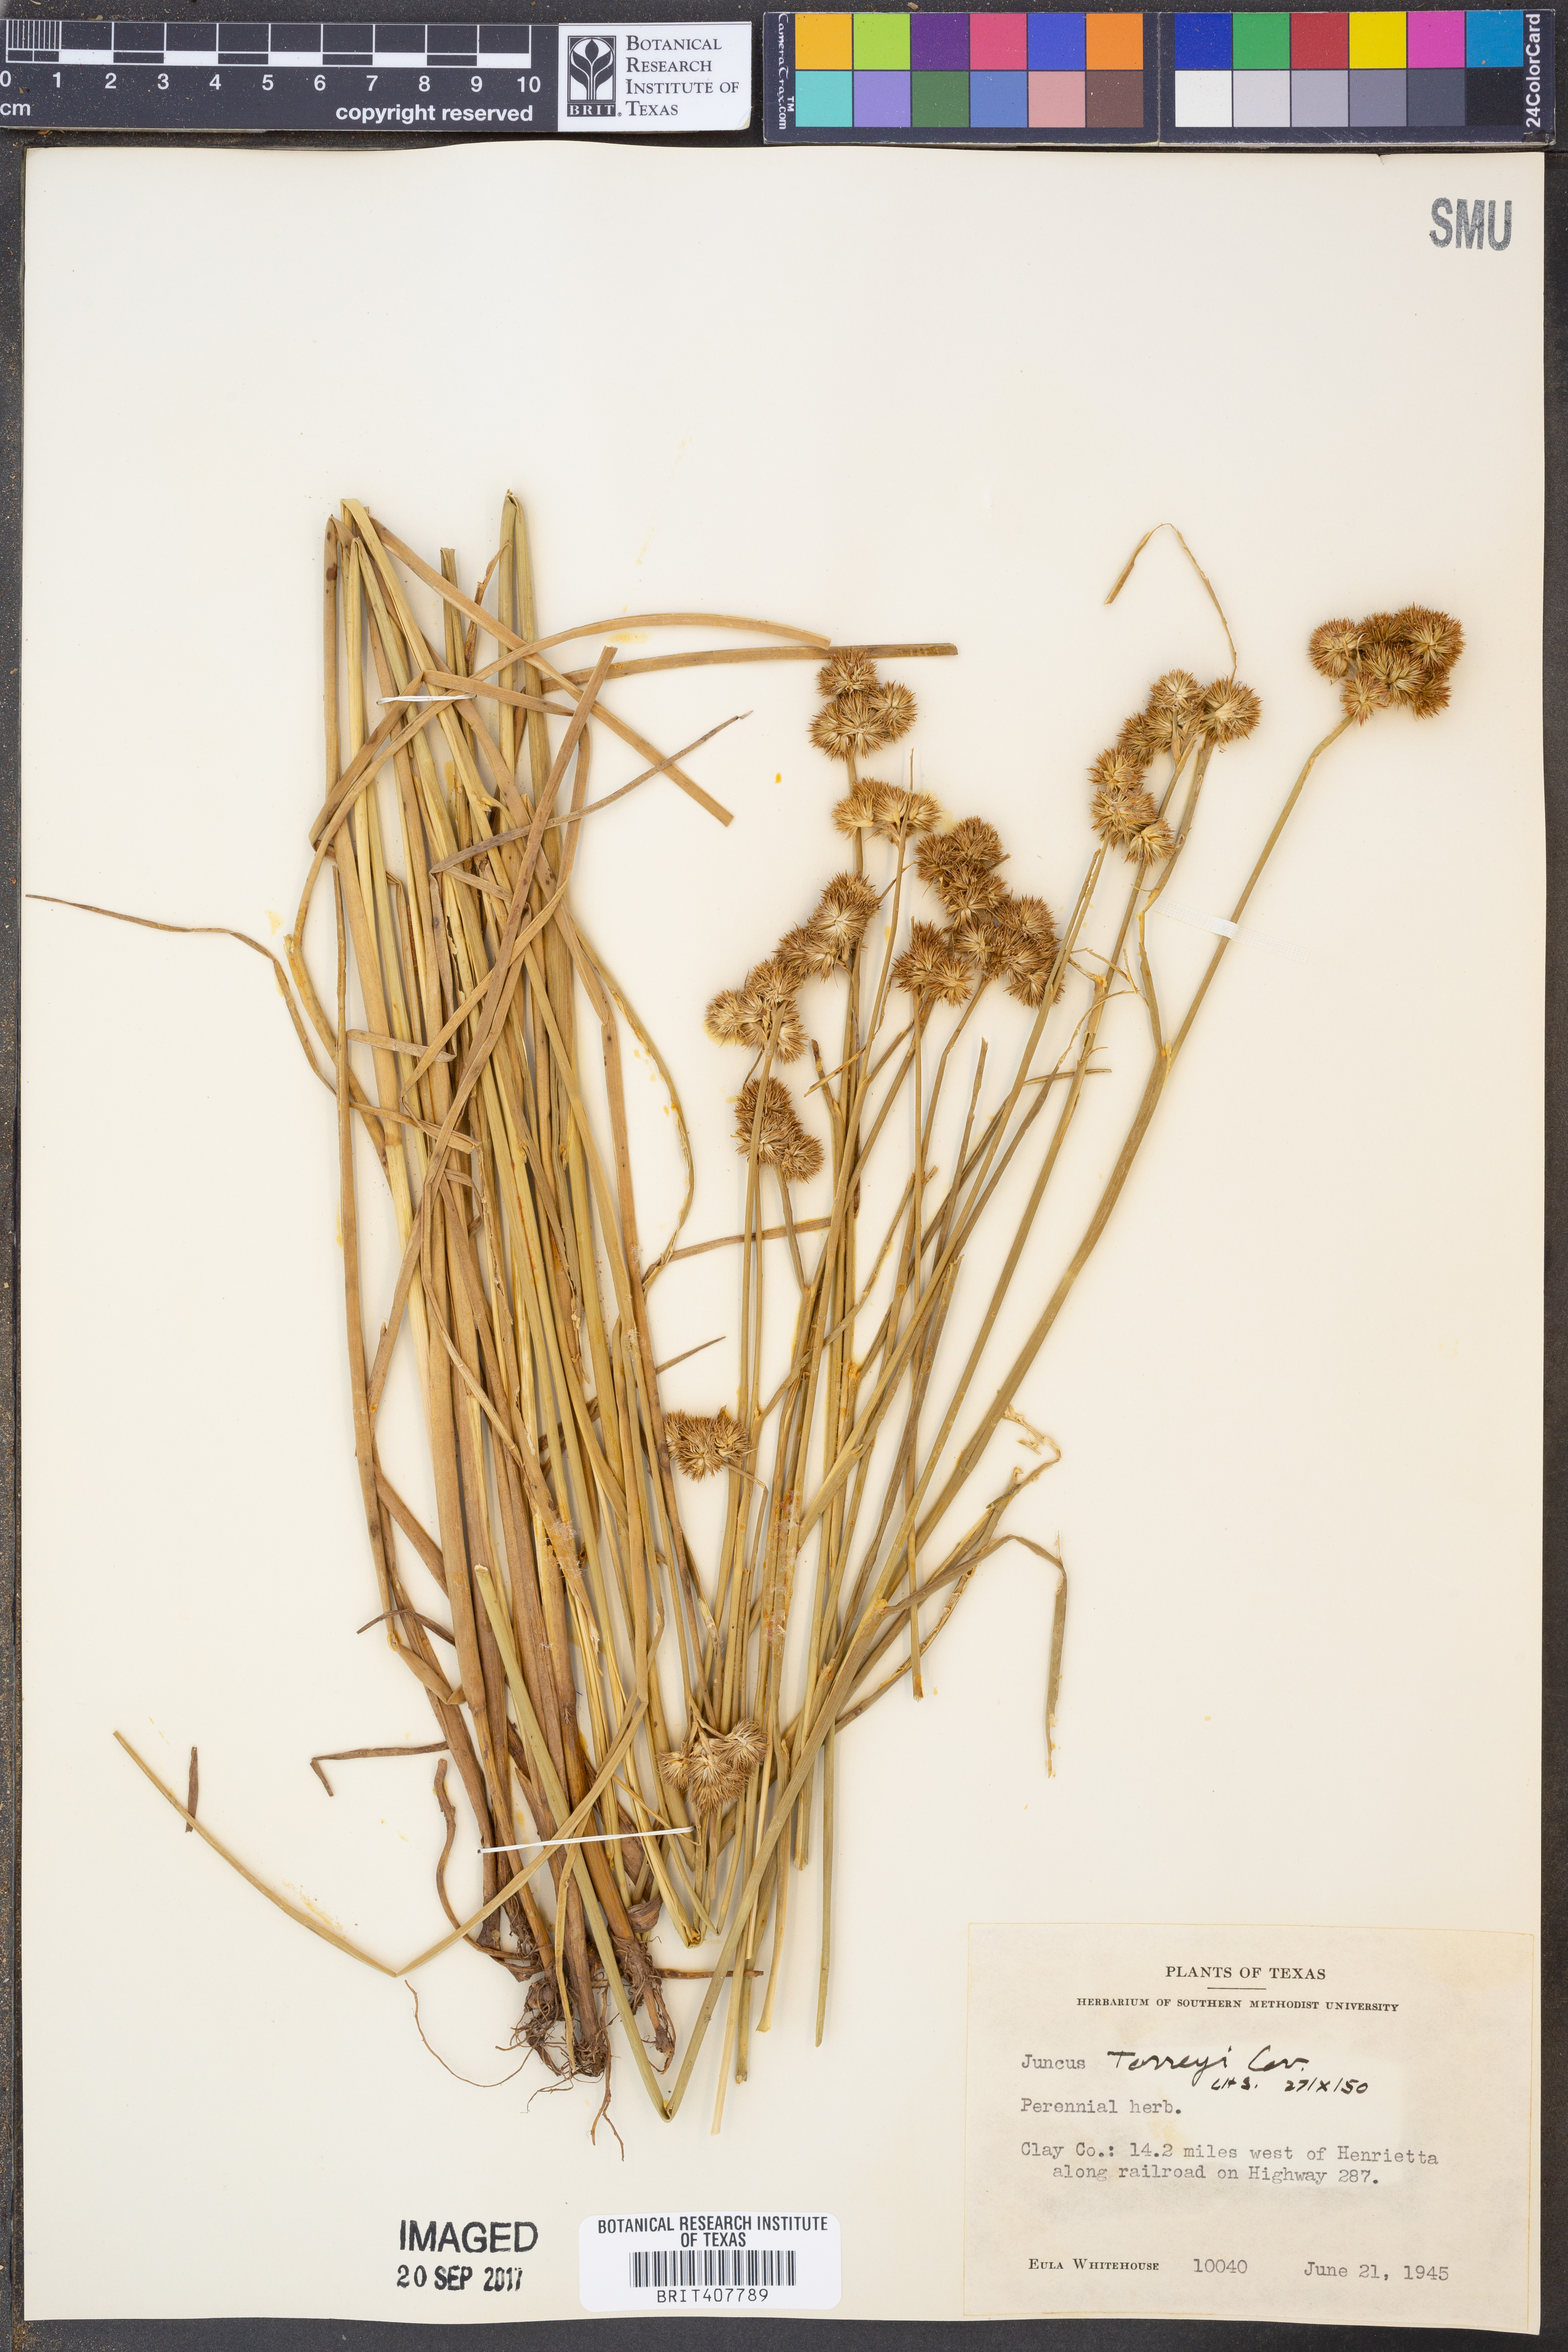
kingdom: Plantae
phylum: Tracheophyta
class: Liliopsida
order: Poales
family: Juncaceae
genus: Juncus
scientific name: Juncus torreyi
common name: Torrey's rush
